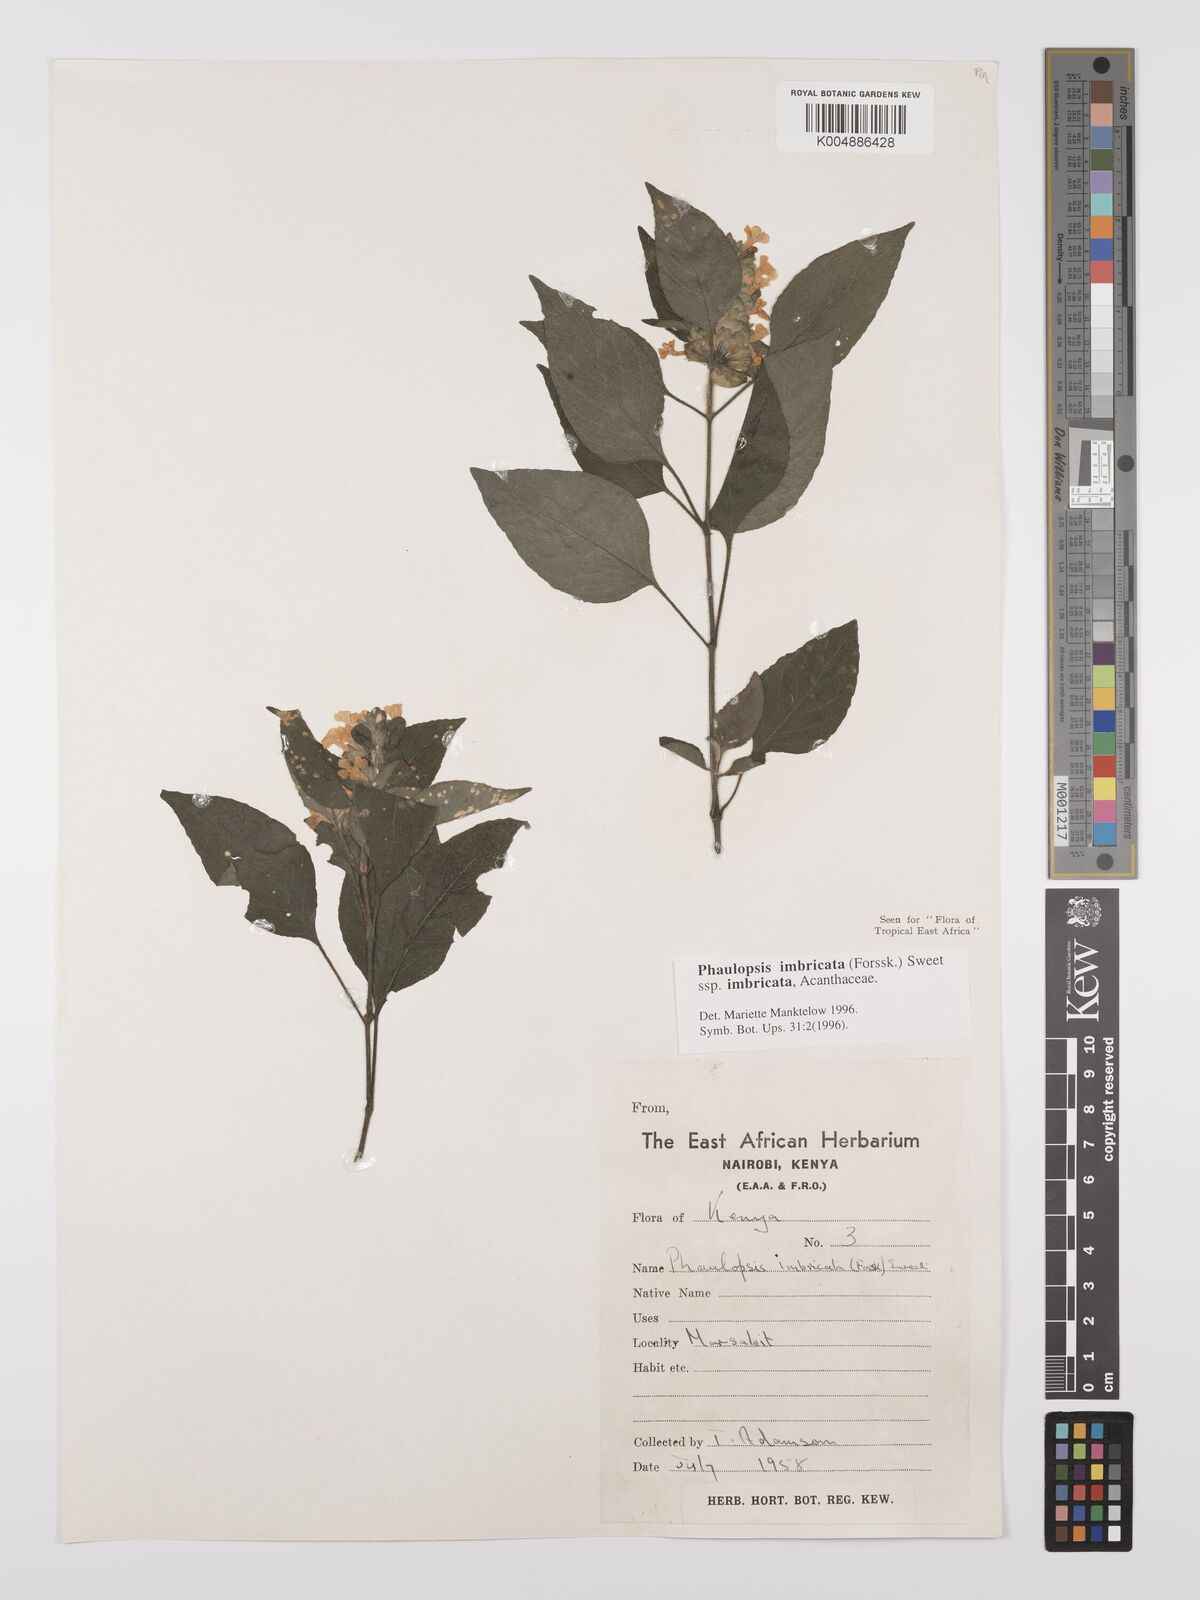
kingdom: Plantae
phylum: Tracheophyta
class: Magnoliopsida
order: Lamiales
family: Acanthaceae
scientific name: Acanthaceae
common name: Acanthaceae
